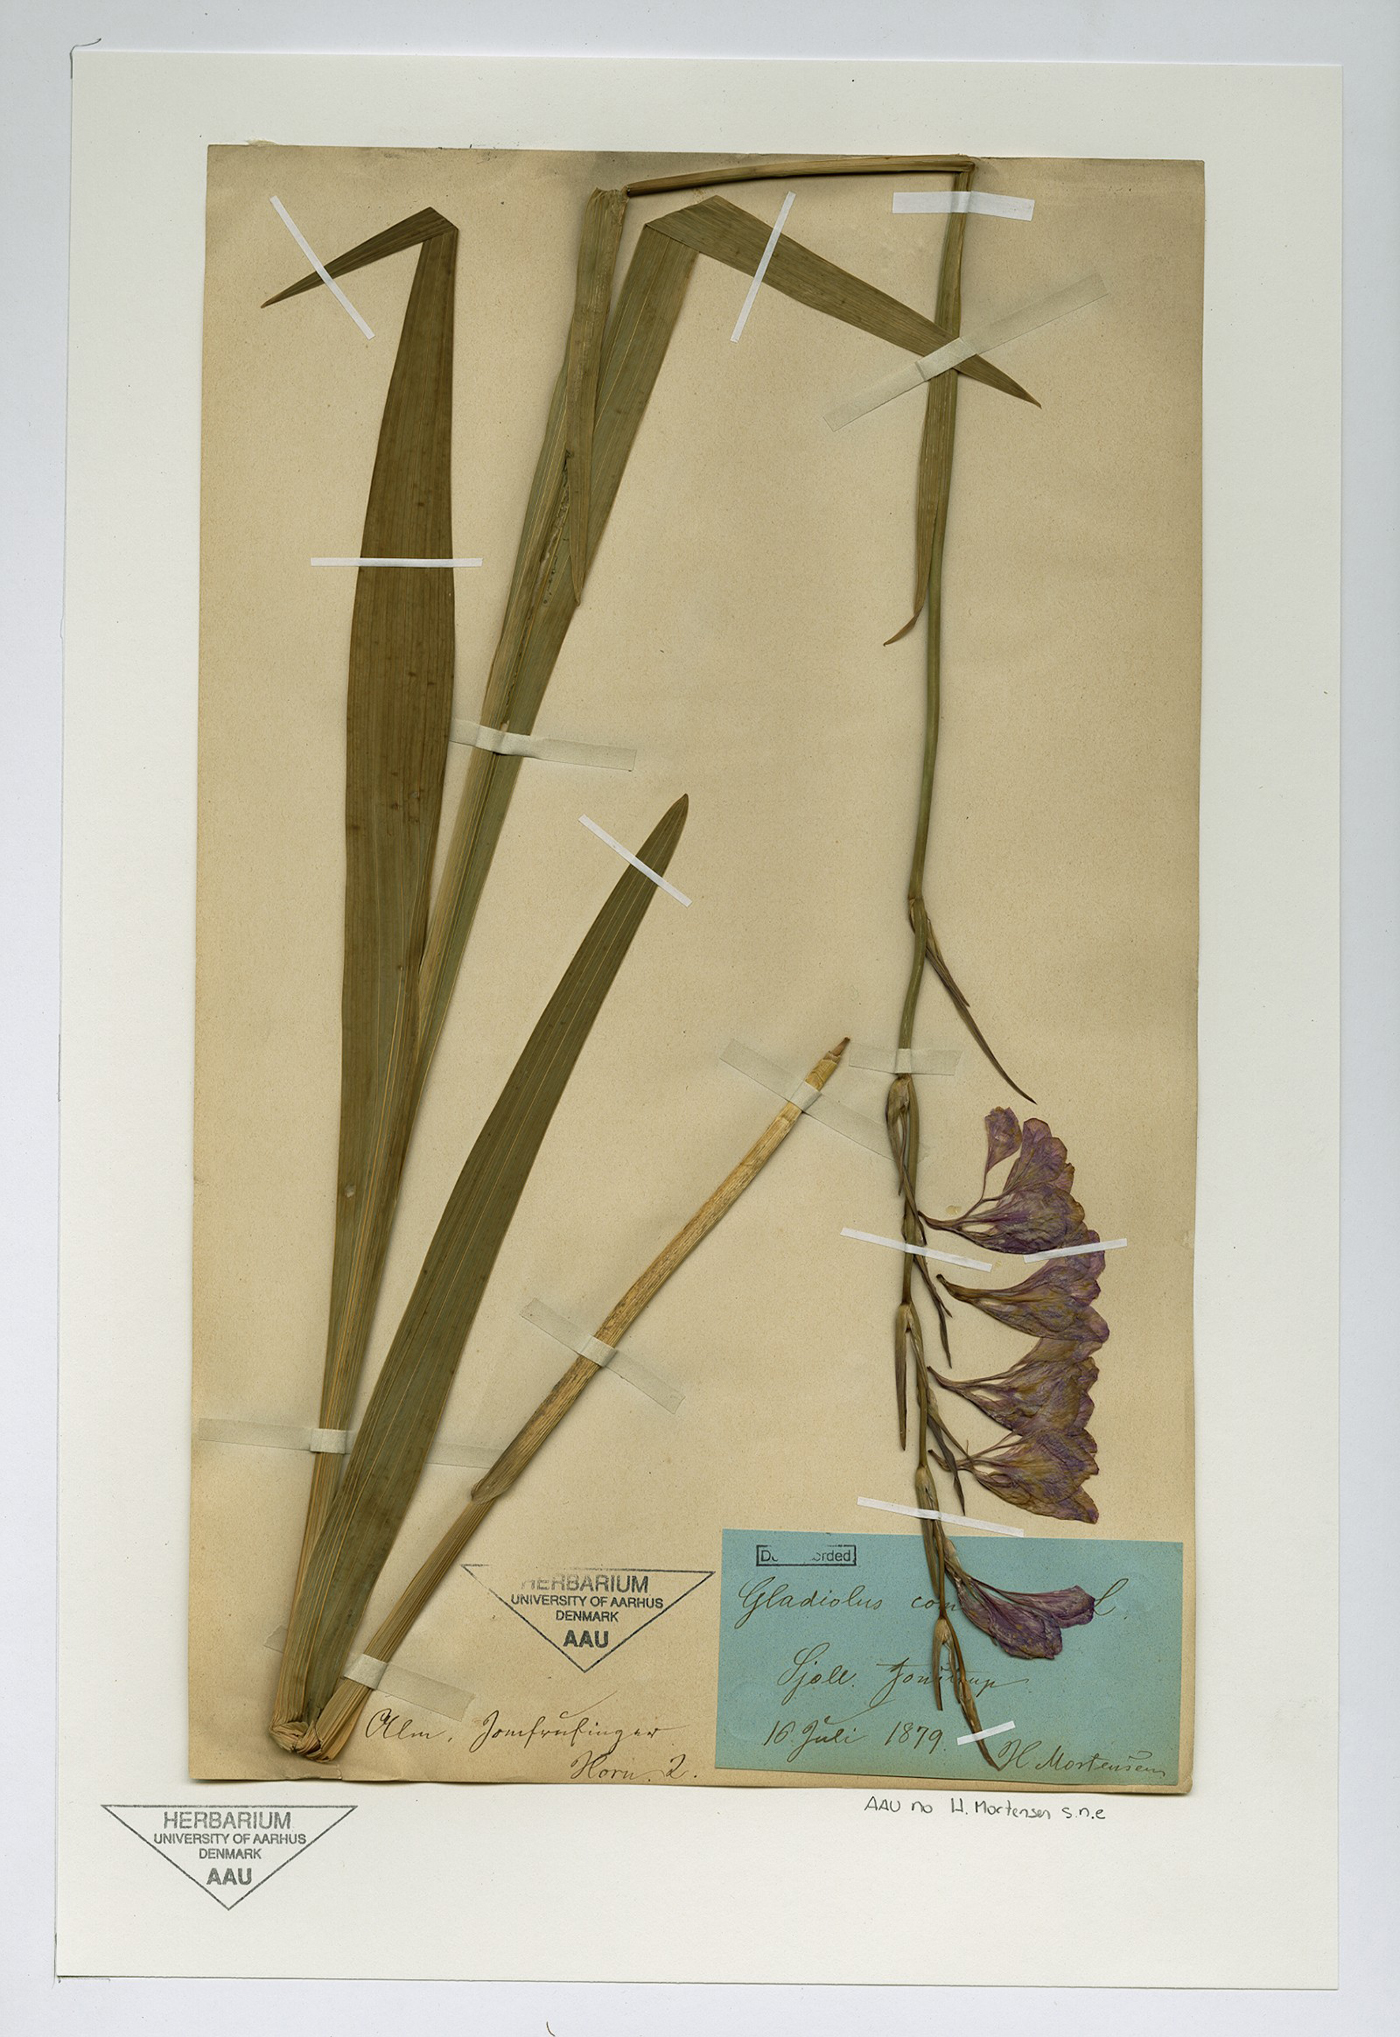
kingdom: Plantae
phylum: Tracheophyta
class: Liliopsida
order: Asparagales
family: Iridaceae
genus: Gladiolus
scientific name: Gladiolus imbricatus
